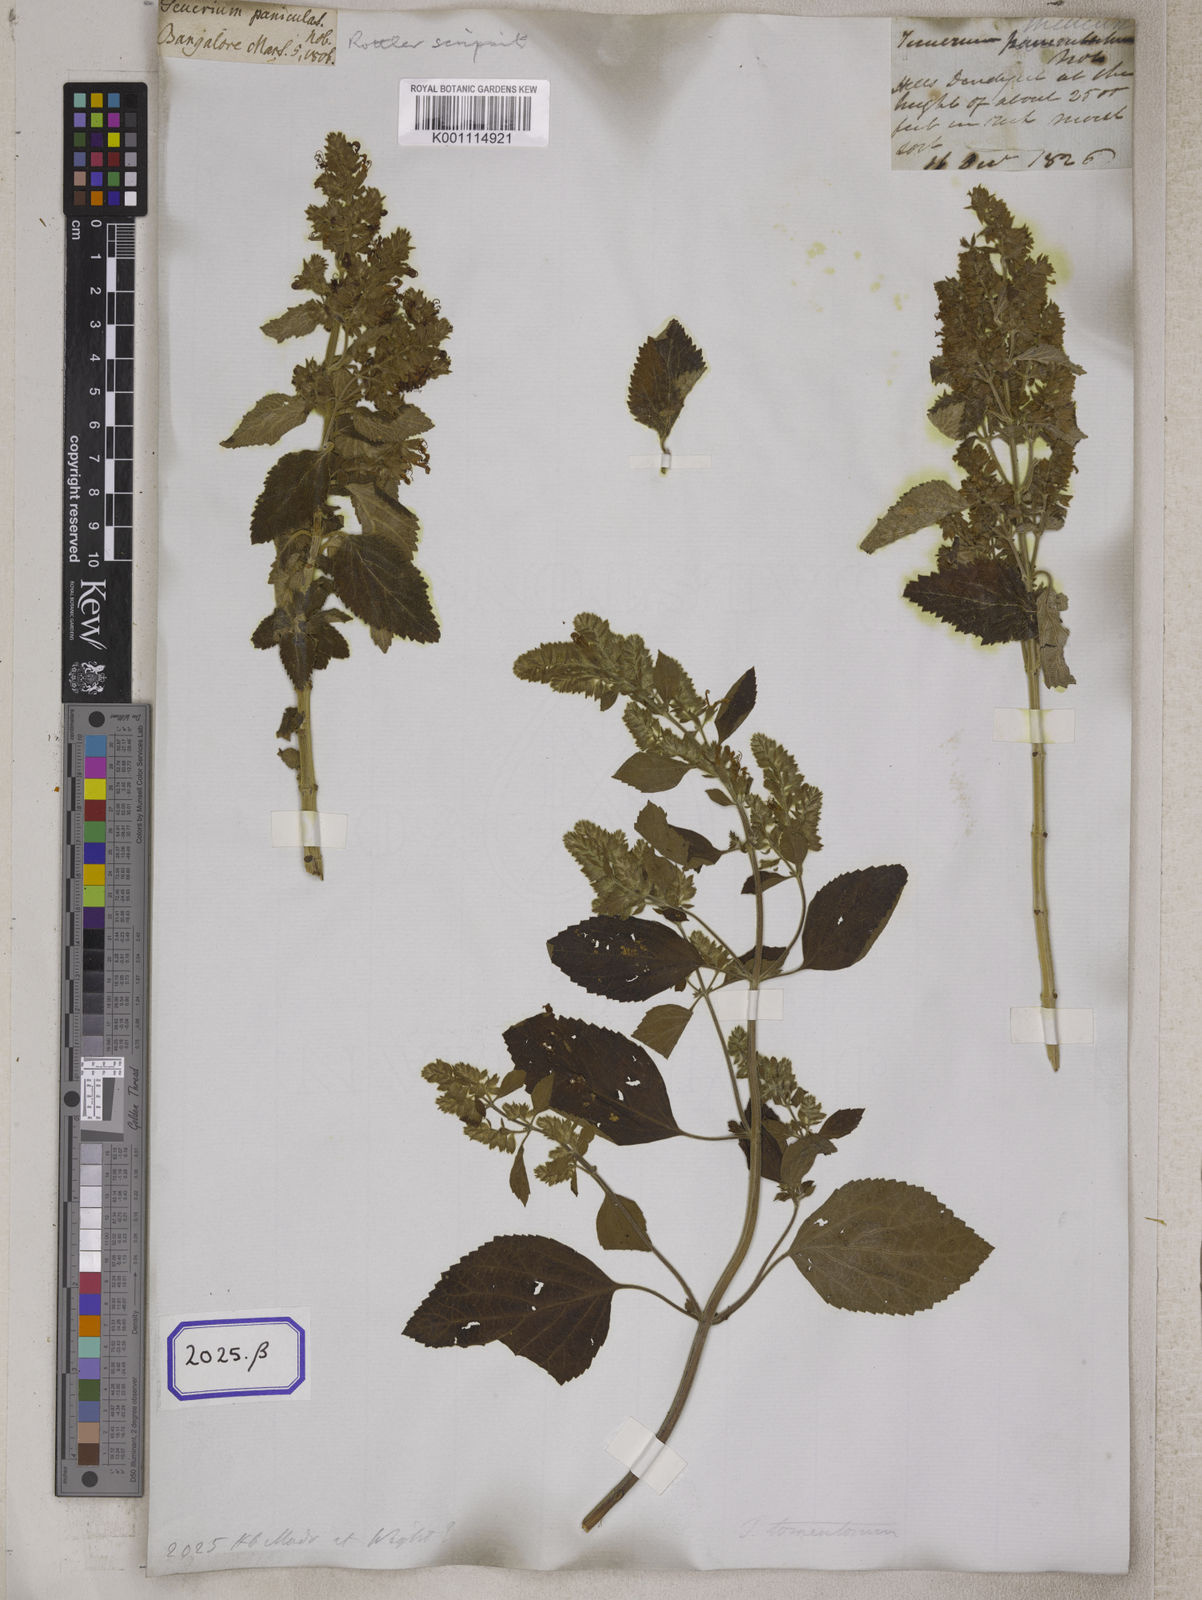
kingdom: Plantae
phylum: Tracheophyta
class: Magnoliopsida
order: Lamiales
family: Lamiaceae
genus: Teucrium
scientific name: Teucrium
